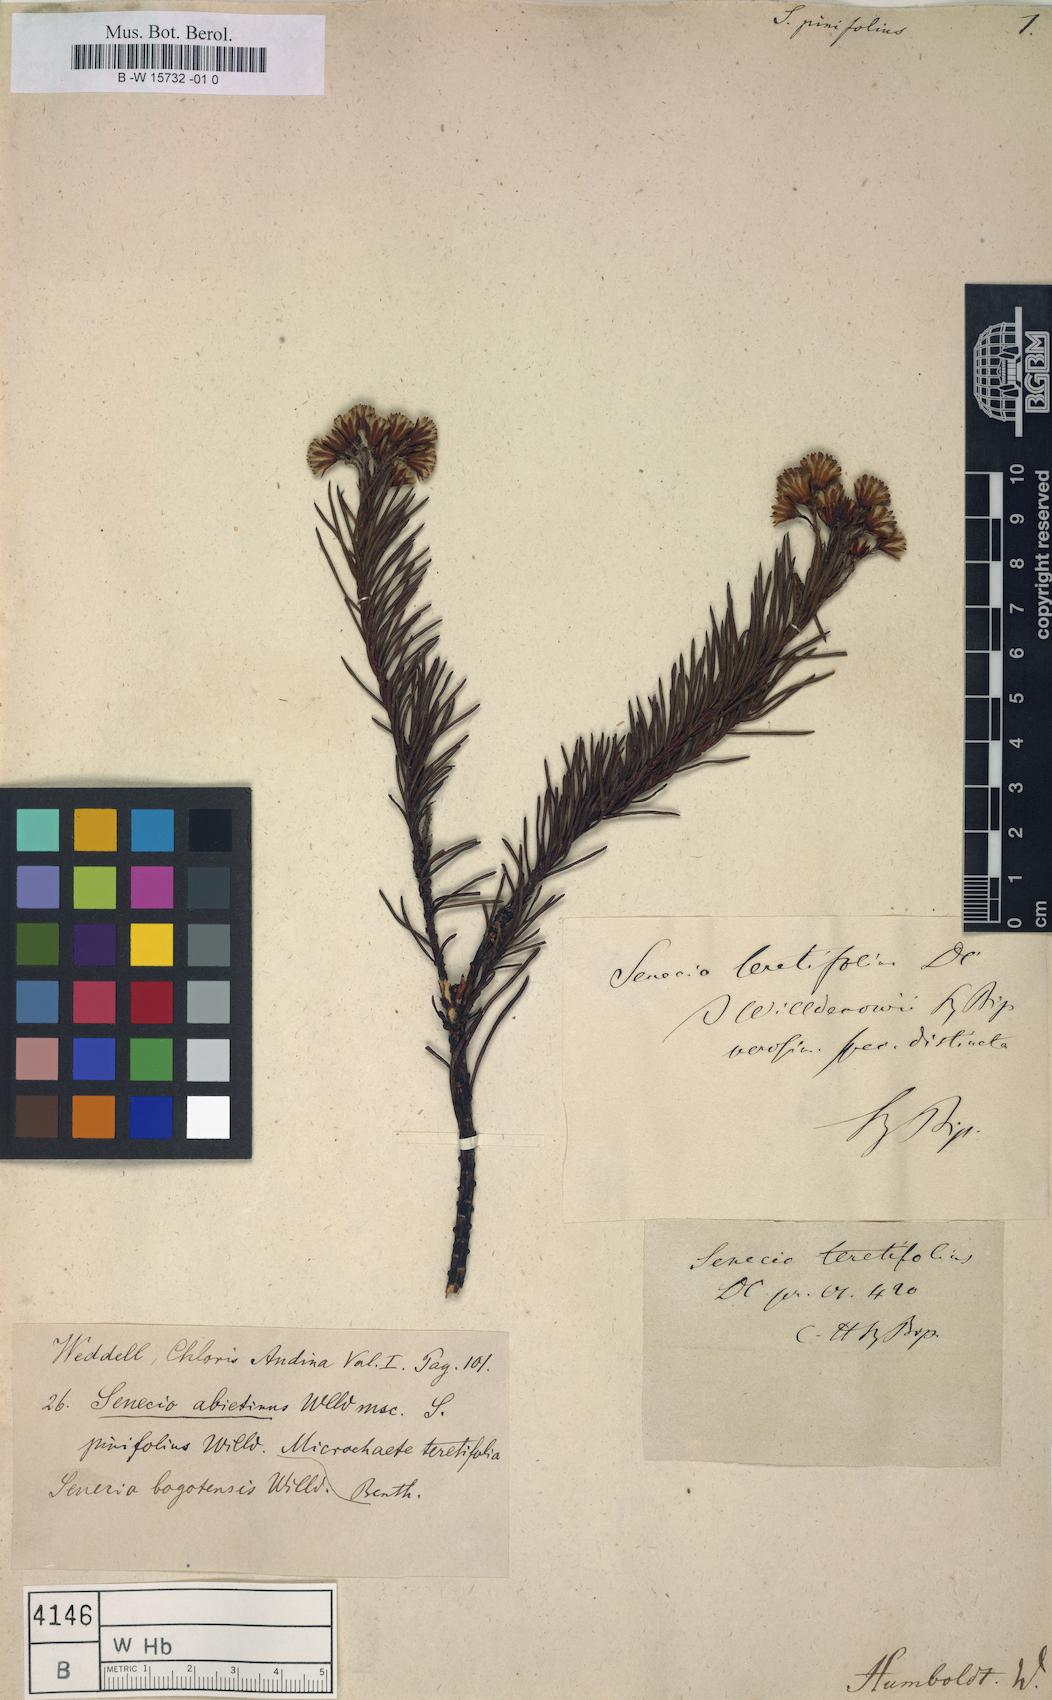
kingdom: Plantae
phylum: Tracheophyta
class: Magnoliopsida
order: Asterales
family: Asteraceae
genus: Senecio
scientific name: Senecio pinifolius
